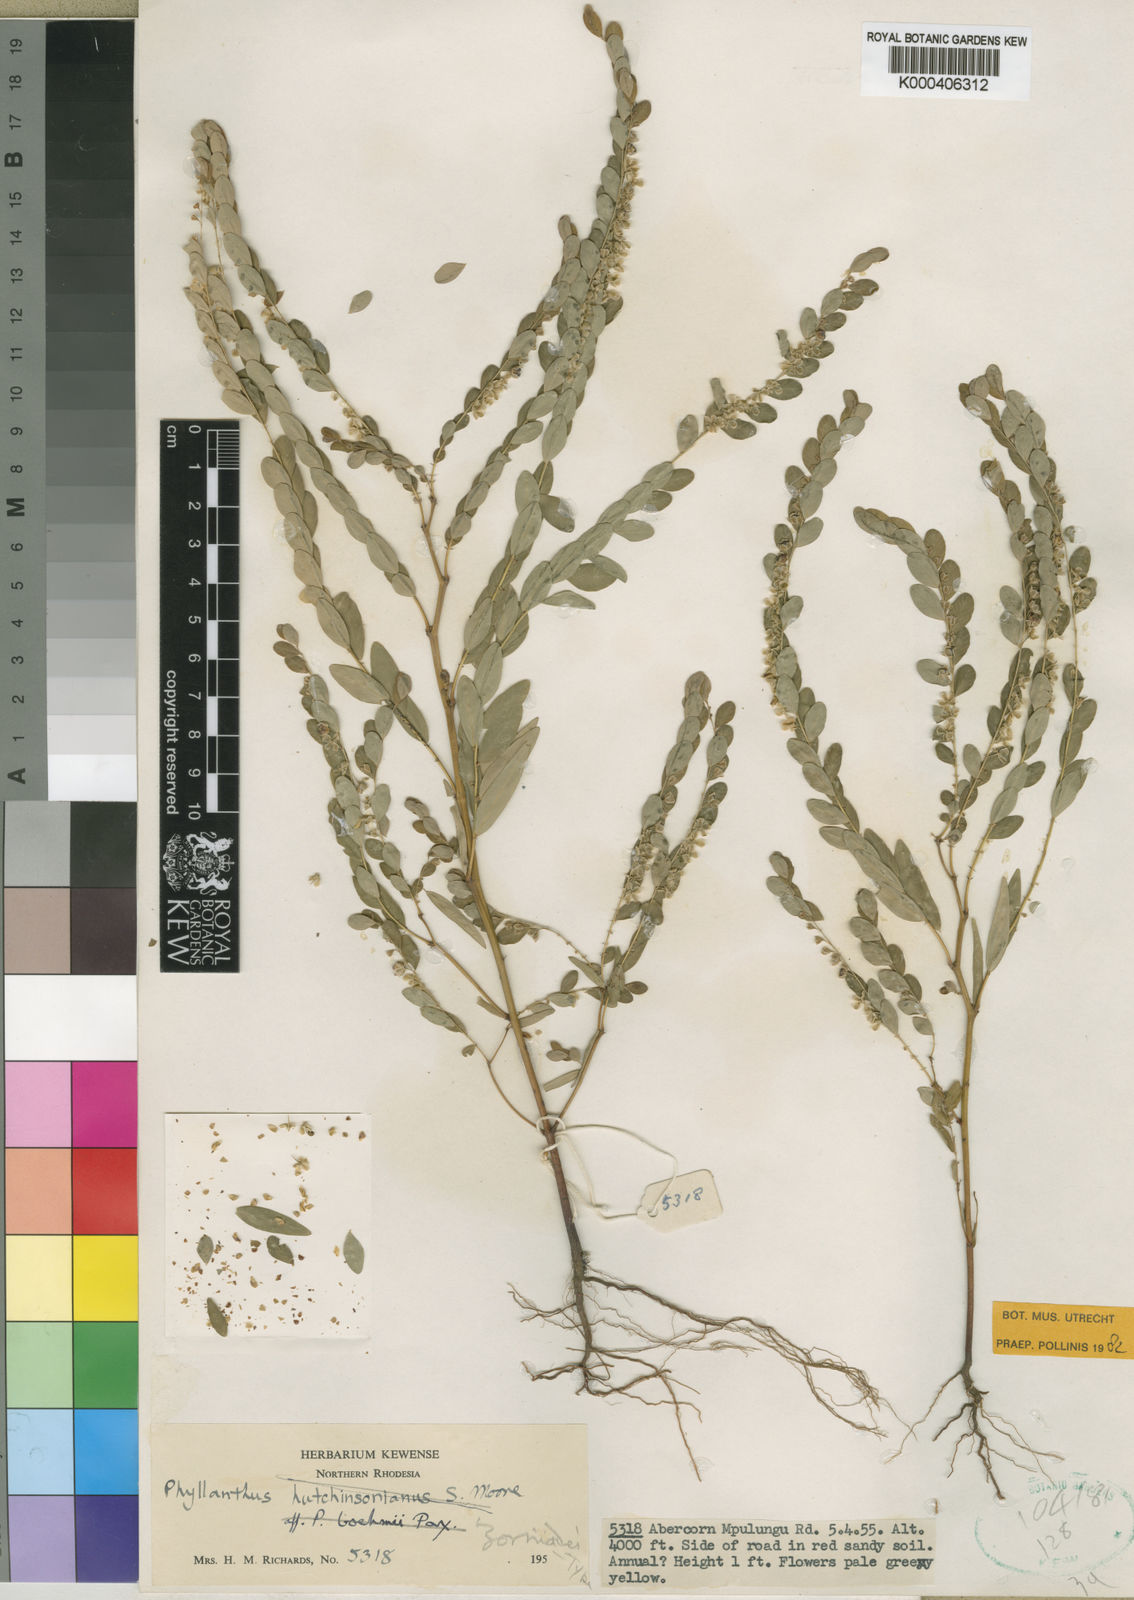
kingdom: Plantae
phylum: Tracheophyta
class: Magnoliopsida
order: Malpighiales
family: Phyllanthaceae
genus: Phyllanthus
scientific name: Phyllanthus zornioides
